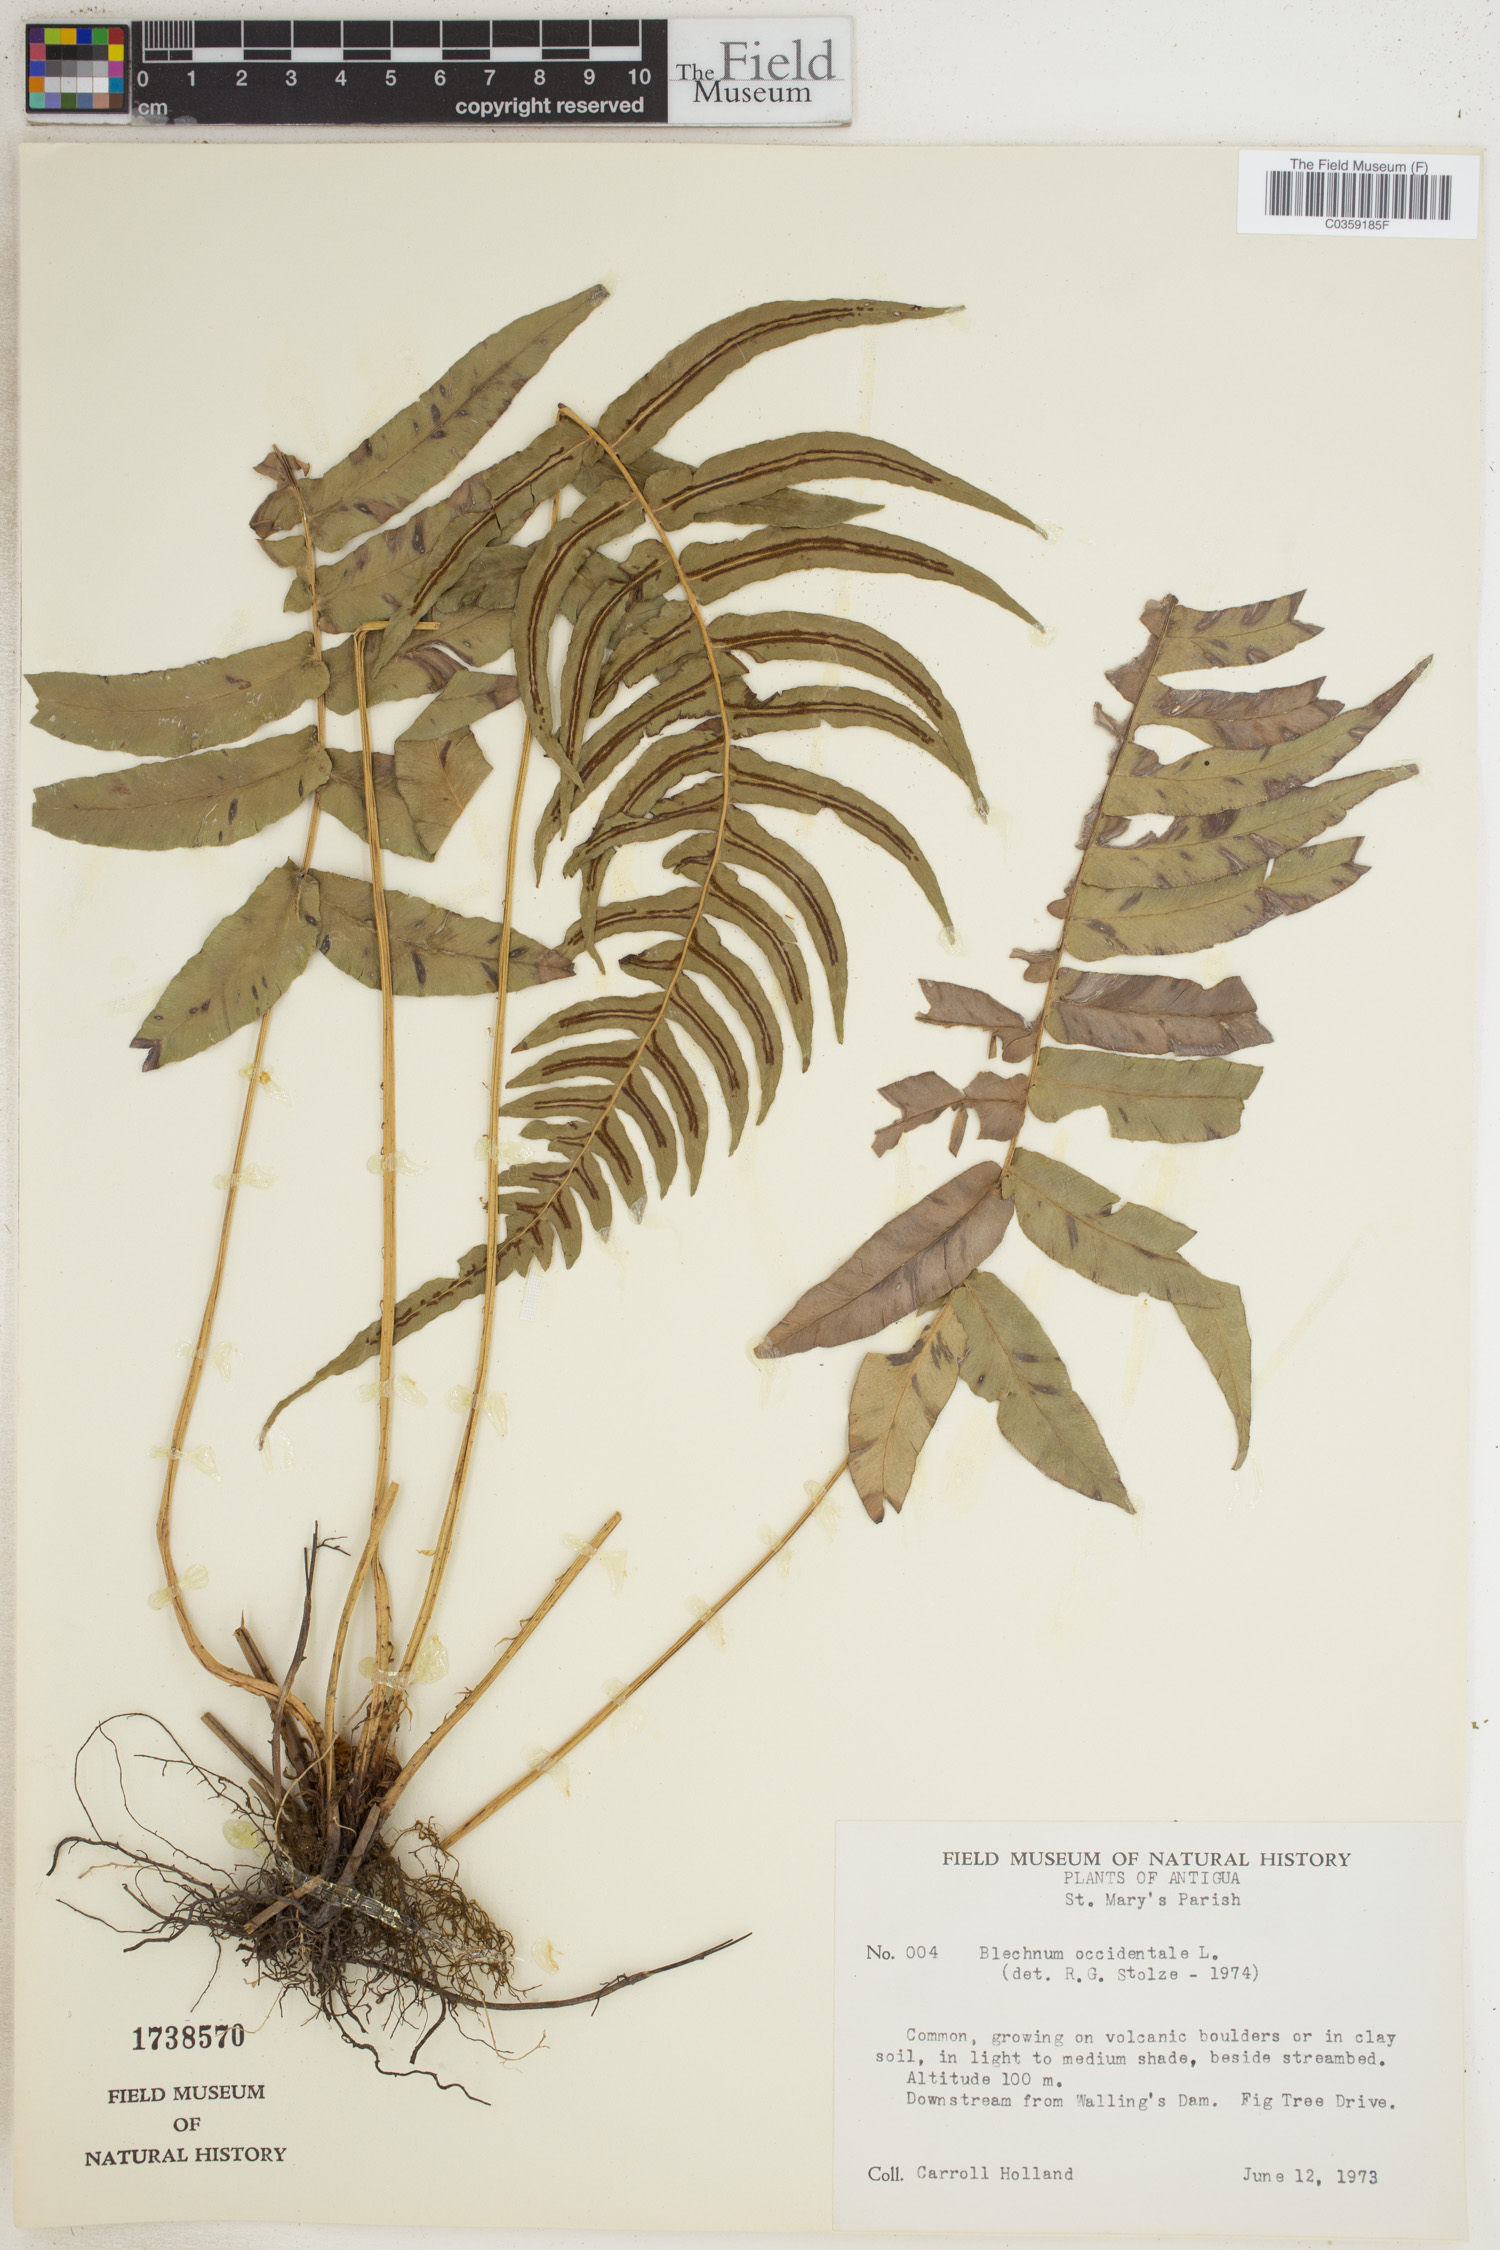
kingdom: Plantae
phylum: Tracheophyta
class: Polypodiopsida
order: Polypodiales
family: Blechnaceae
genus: Blechnum
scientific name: Blechnum occidentale
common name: Hammock fern
